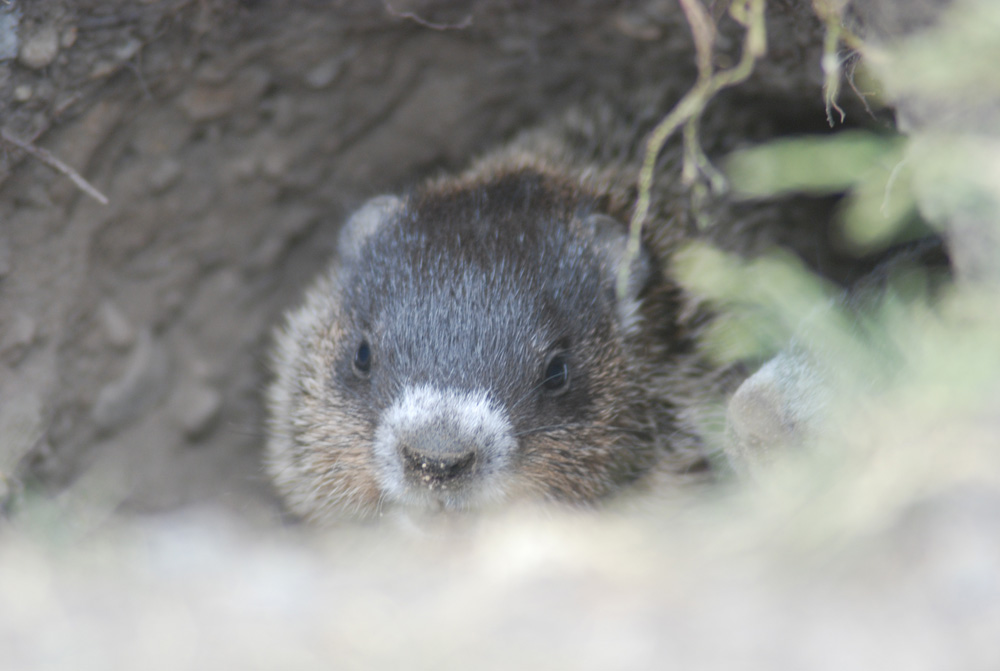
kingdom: Animalia
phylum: Chordata
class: Mammalia
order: Rodentia
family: Sciuridae
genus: Marmota
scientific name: Marmota monax
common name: Groundhog
